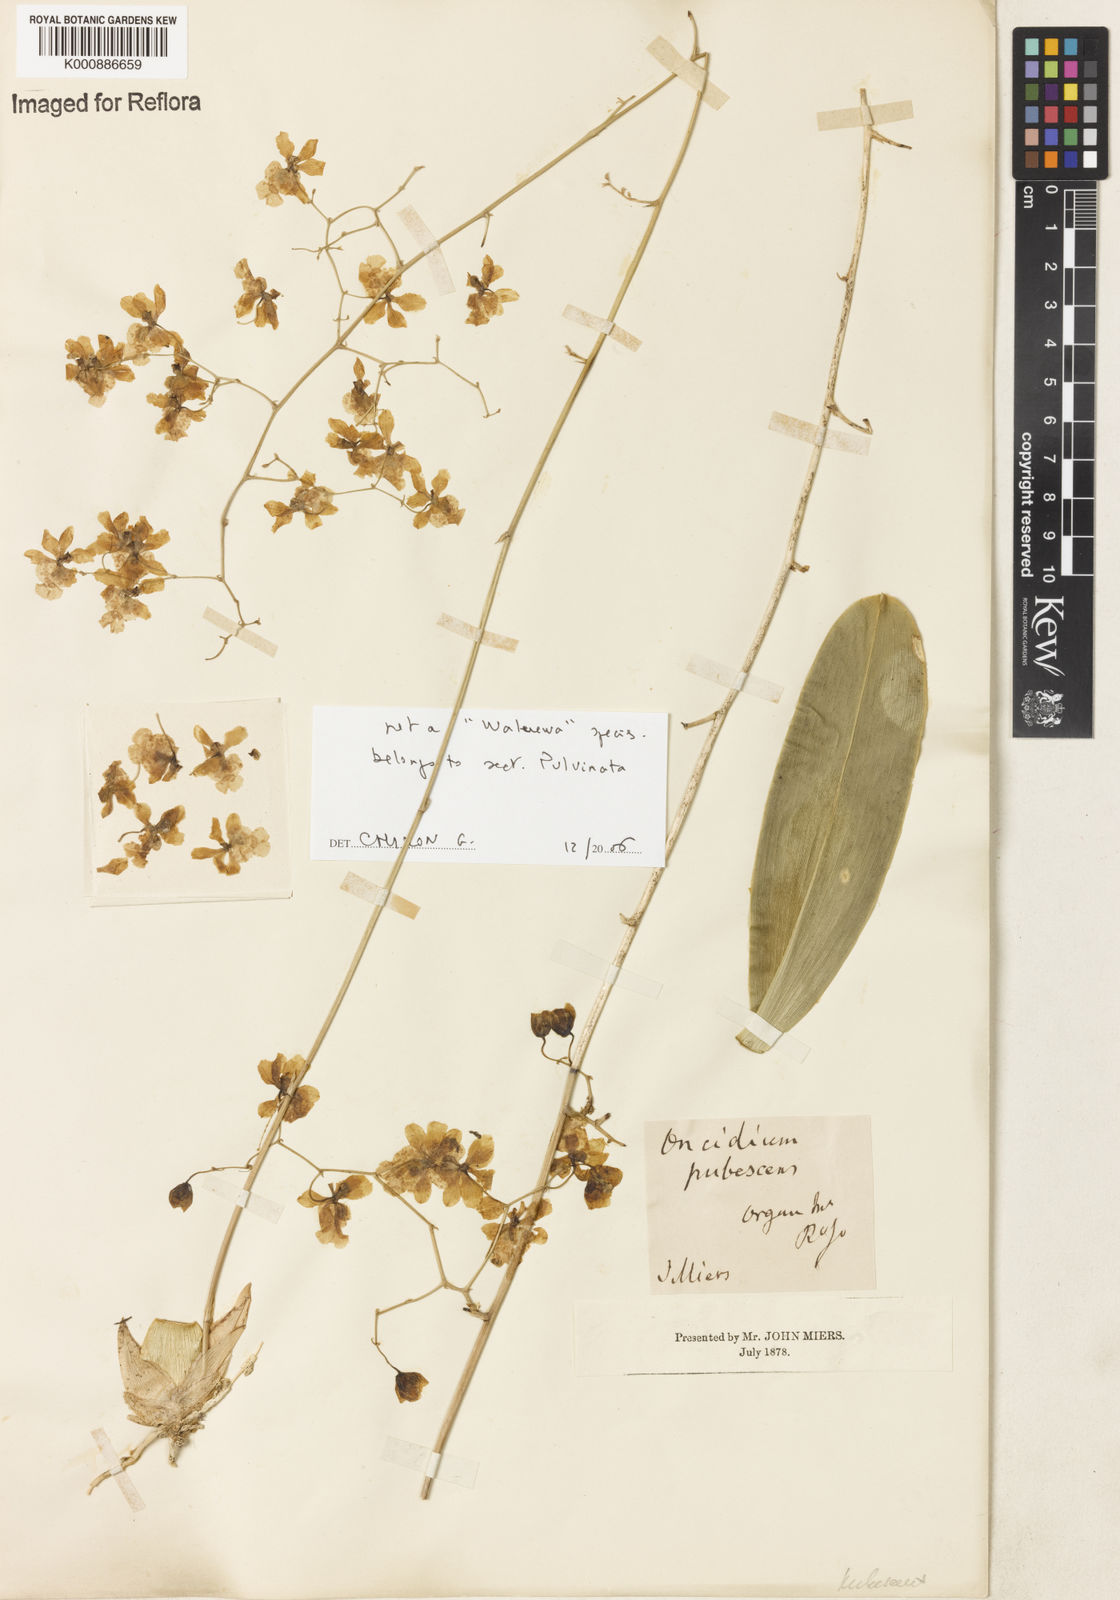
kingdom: Plantae
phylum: Tracheophyta
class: Liliopsida
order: Asparagales
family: Orchidaceae
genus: Grandiphyllum
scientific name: Grandiphyllum divaricatum
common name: Mule-ear orchid
